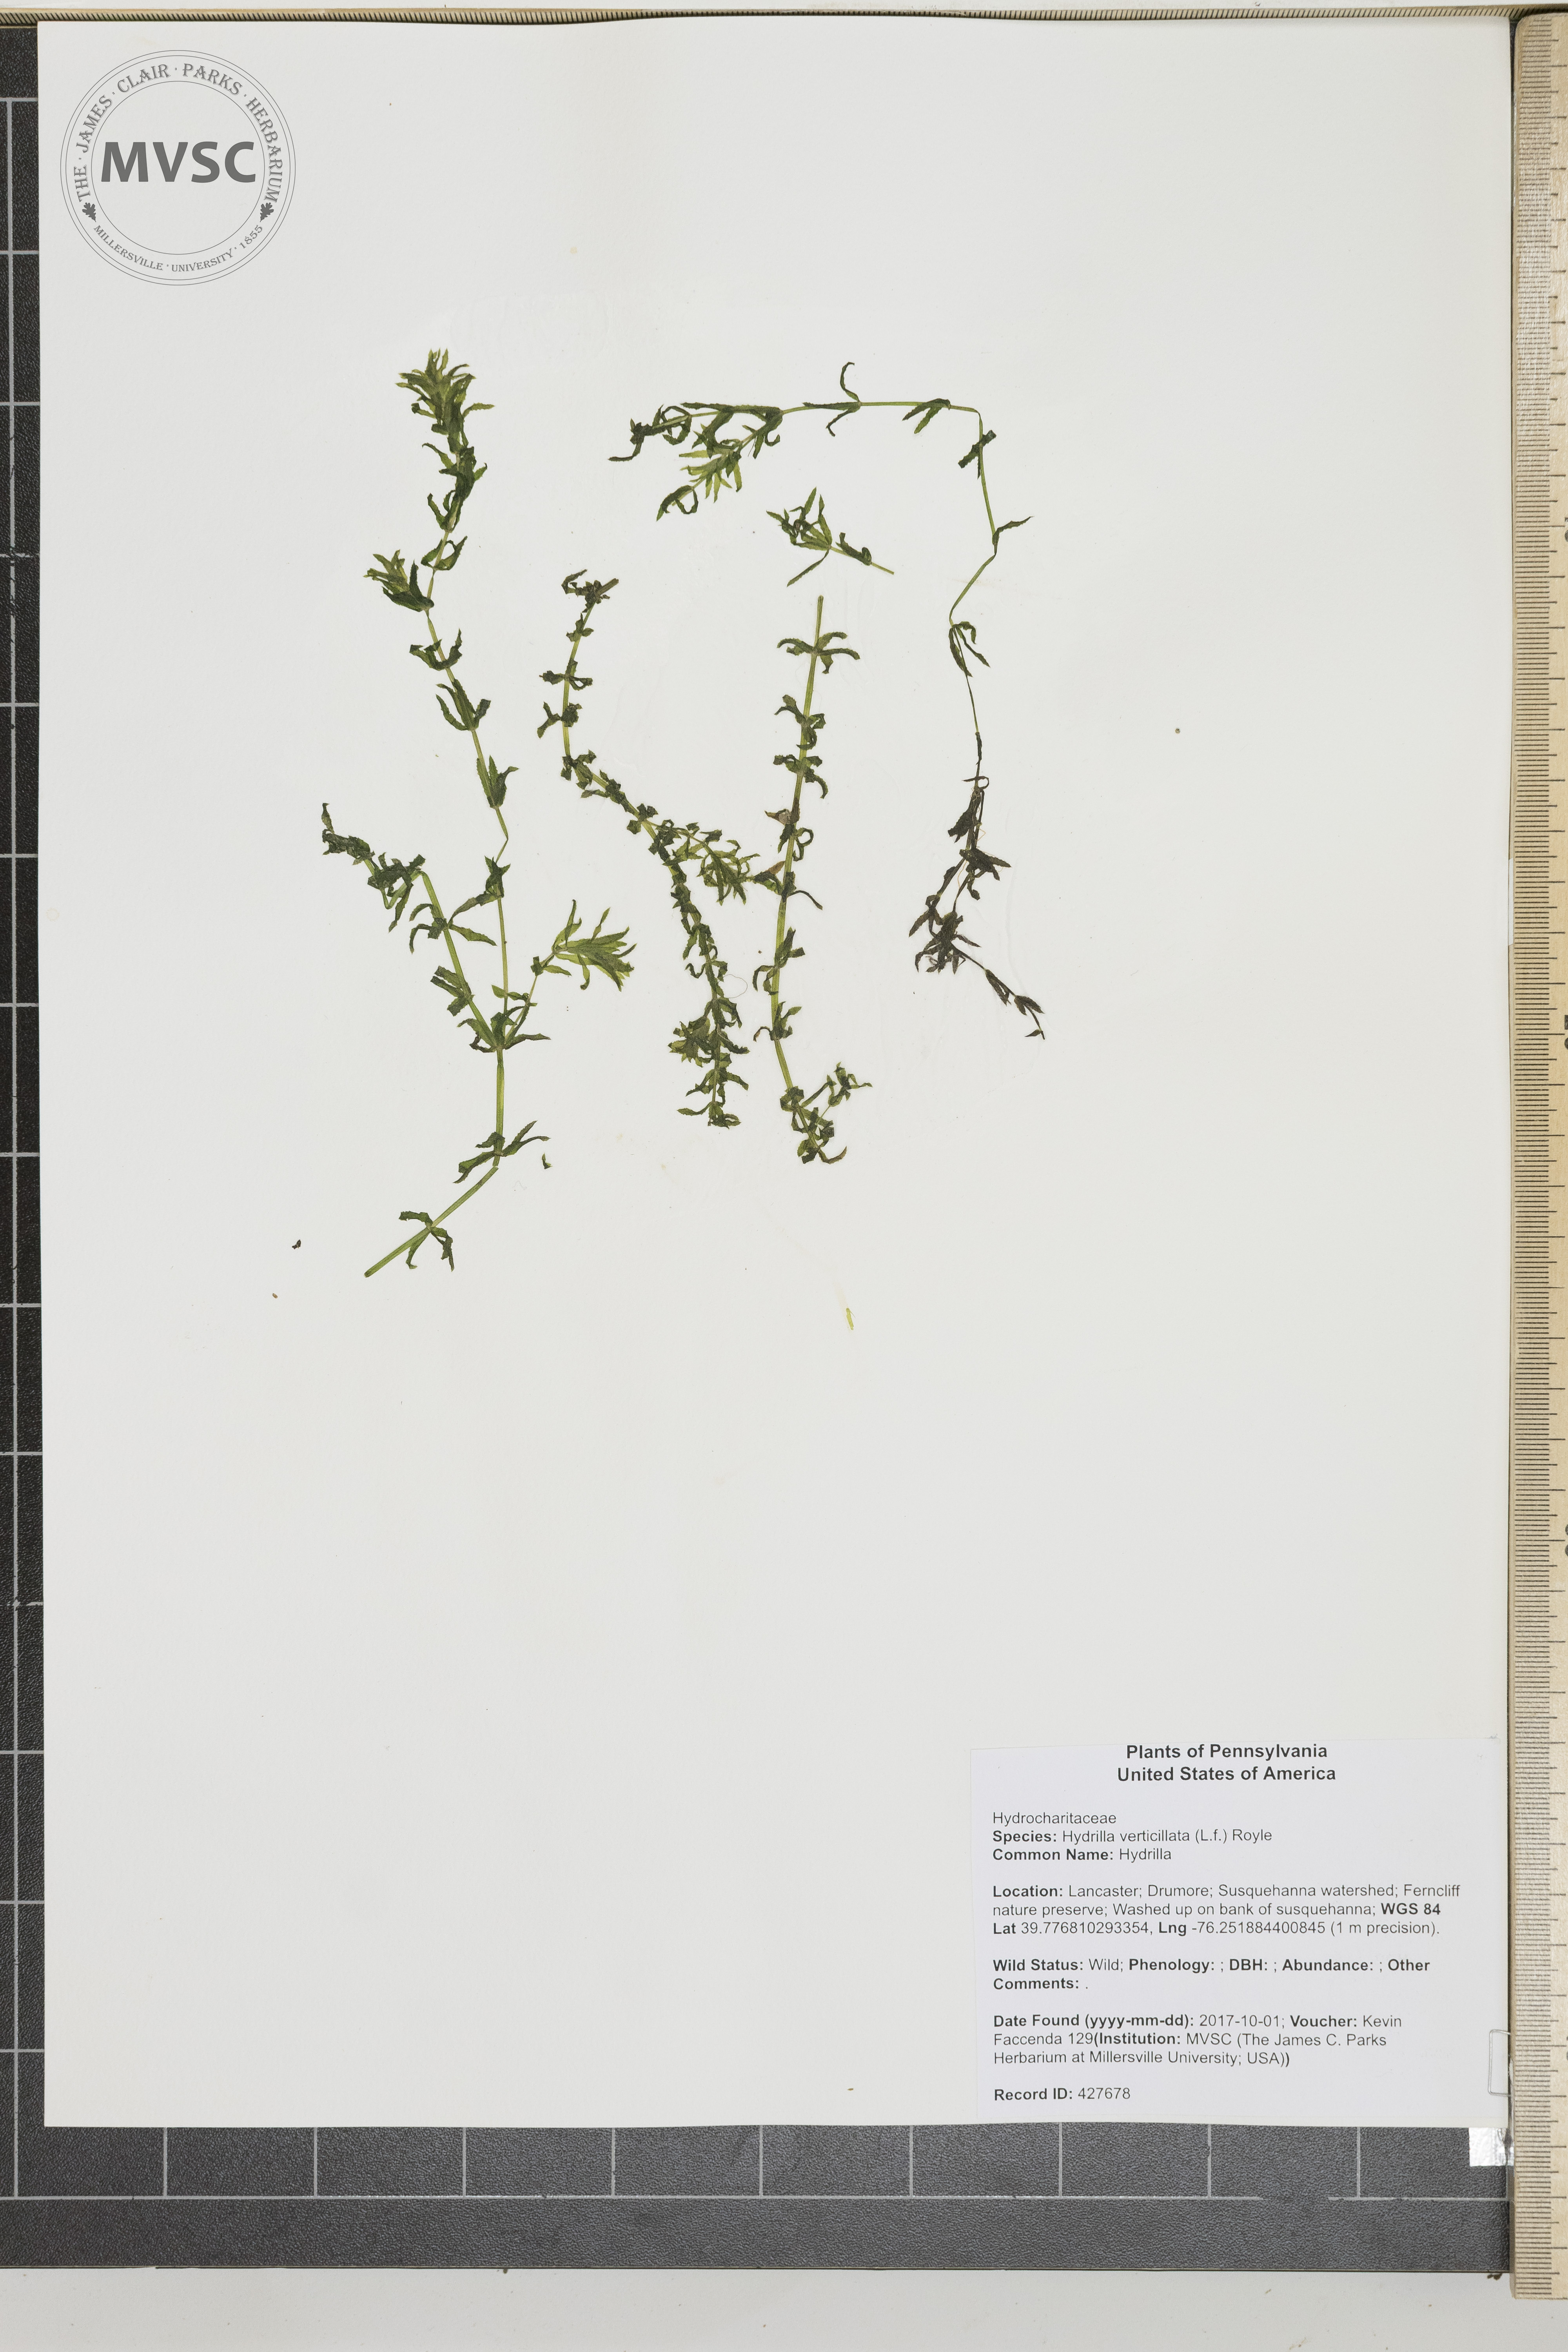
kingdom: Plantae
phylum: Tracheophyta
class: Liliopsida
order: Alismatales
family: Hydrocharitaceae
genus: Hydrilla
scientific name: Hydrilla verticillata
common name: Hydrilla
